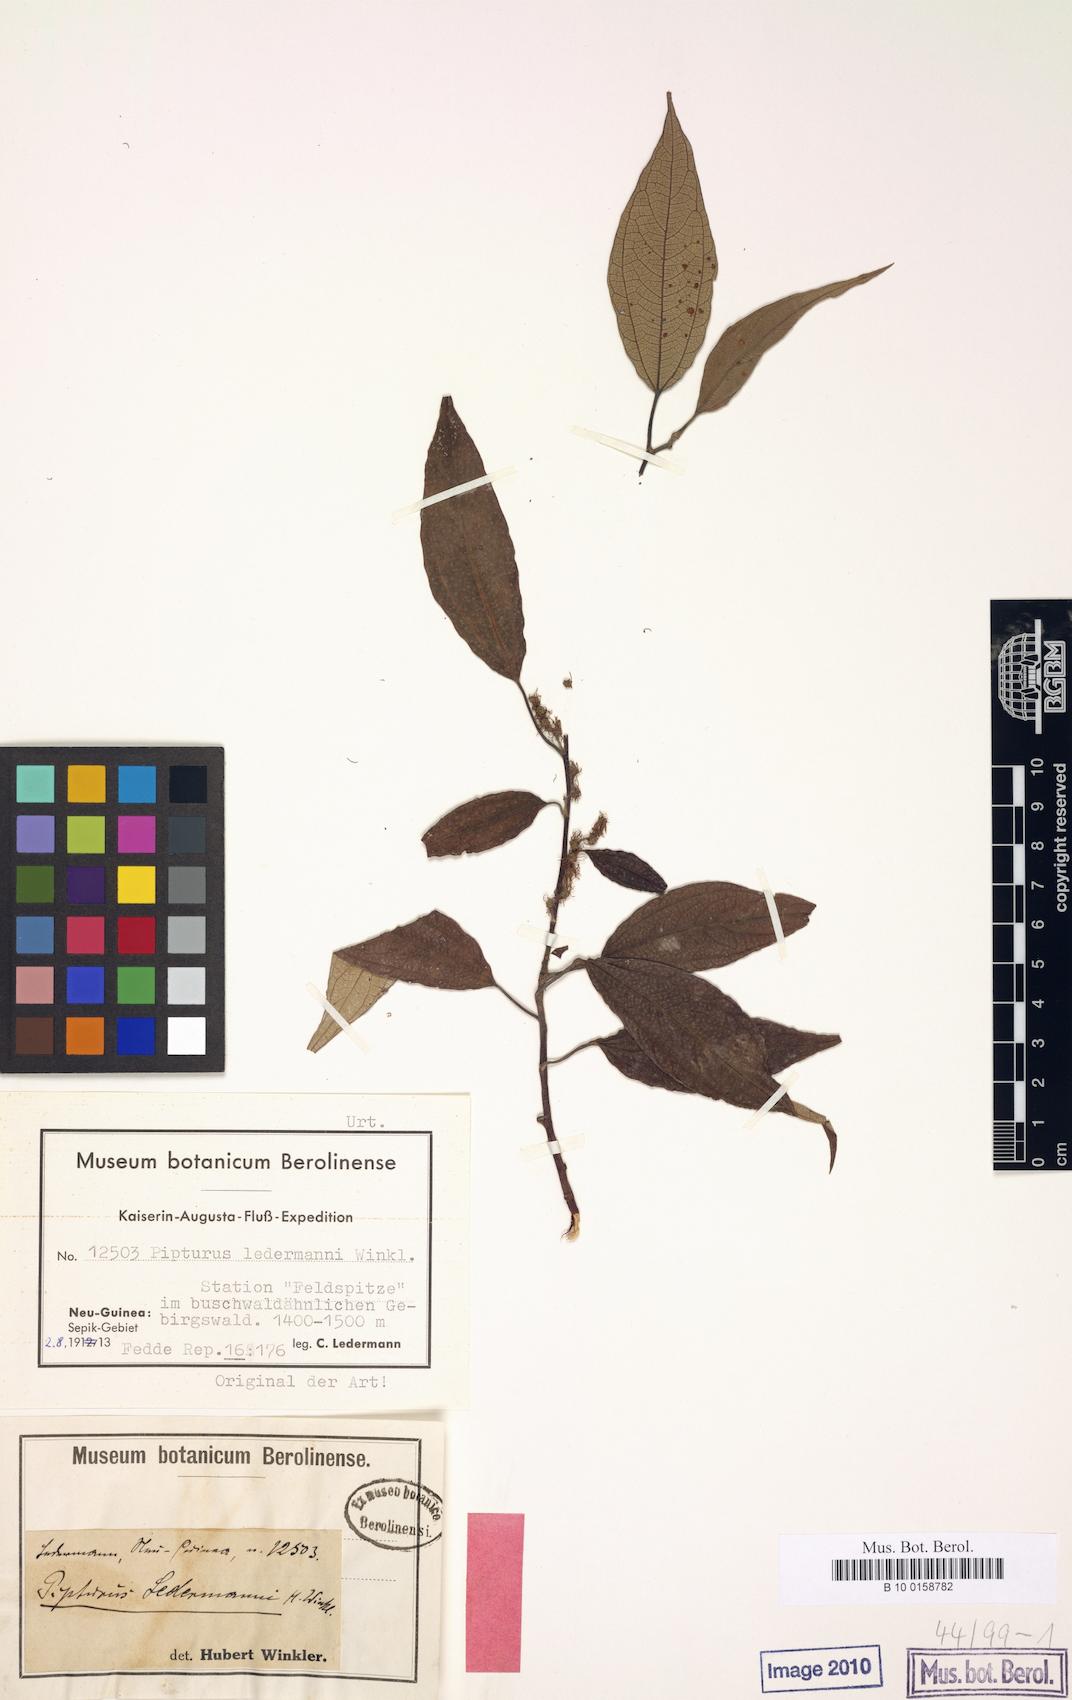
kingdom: Plantae
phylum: Tracheophyta
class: Magnoliopsida
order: Rosales
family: Urticaceae
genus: Pipturus
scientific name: Pipturus ledermannii
